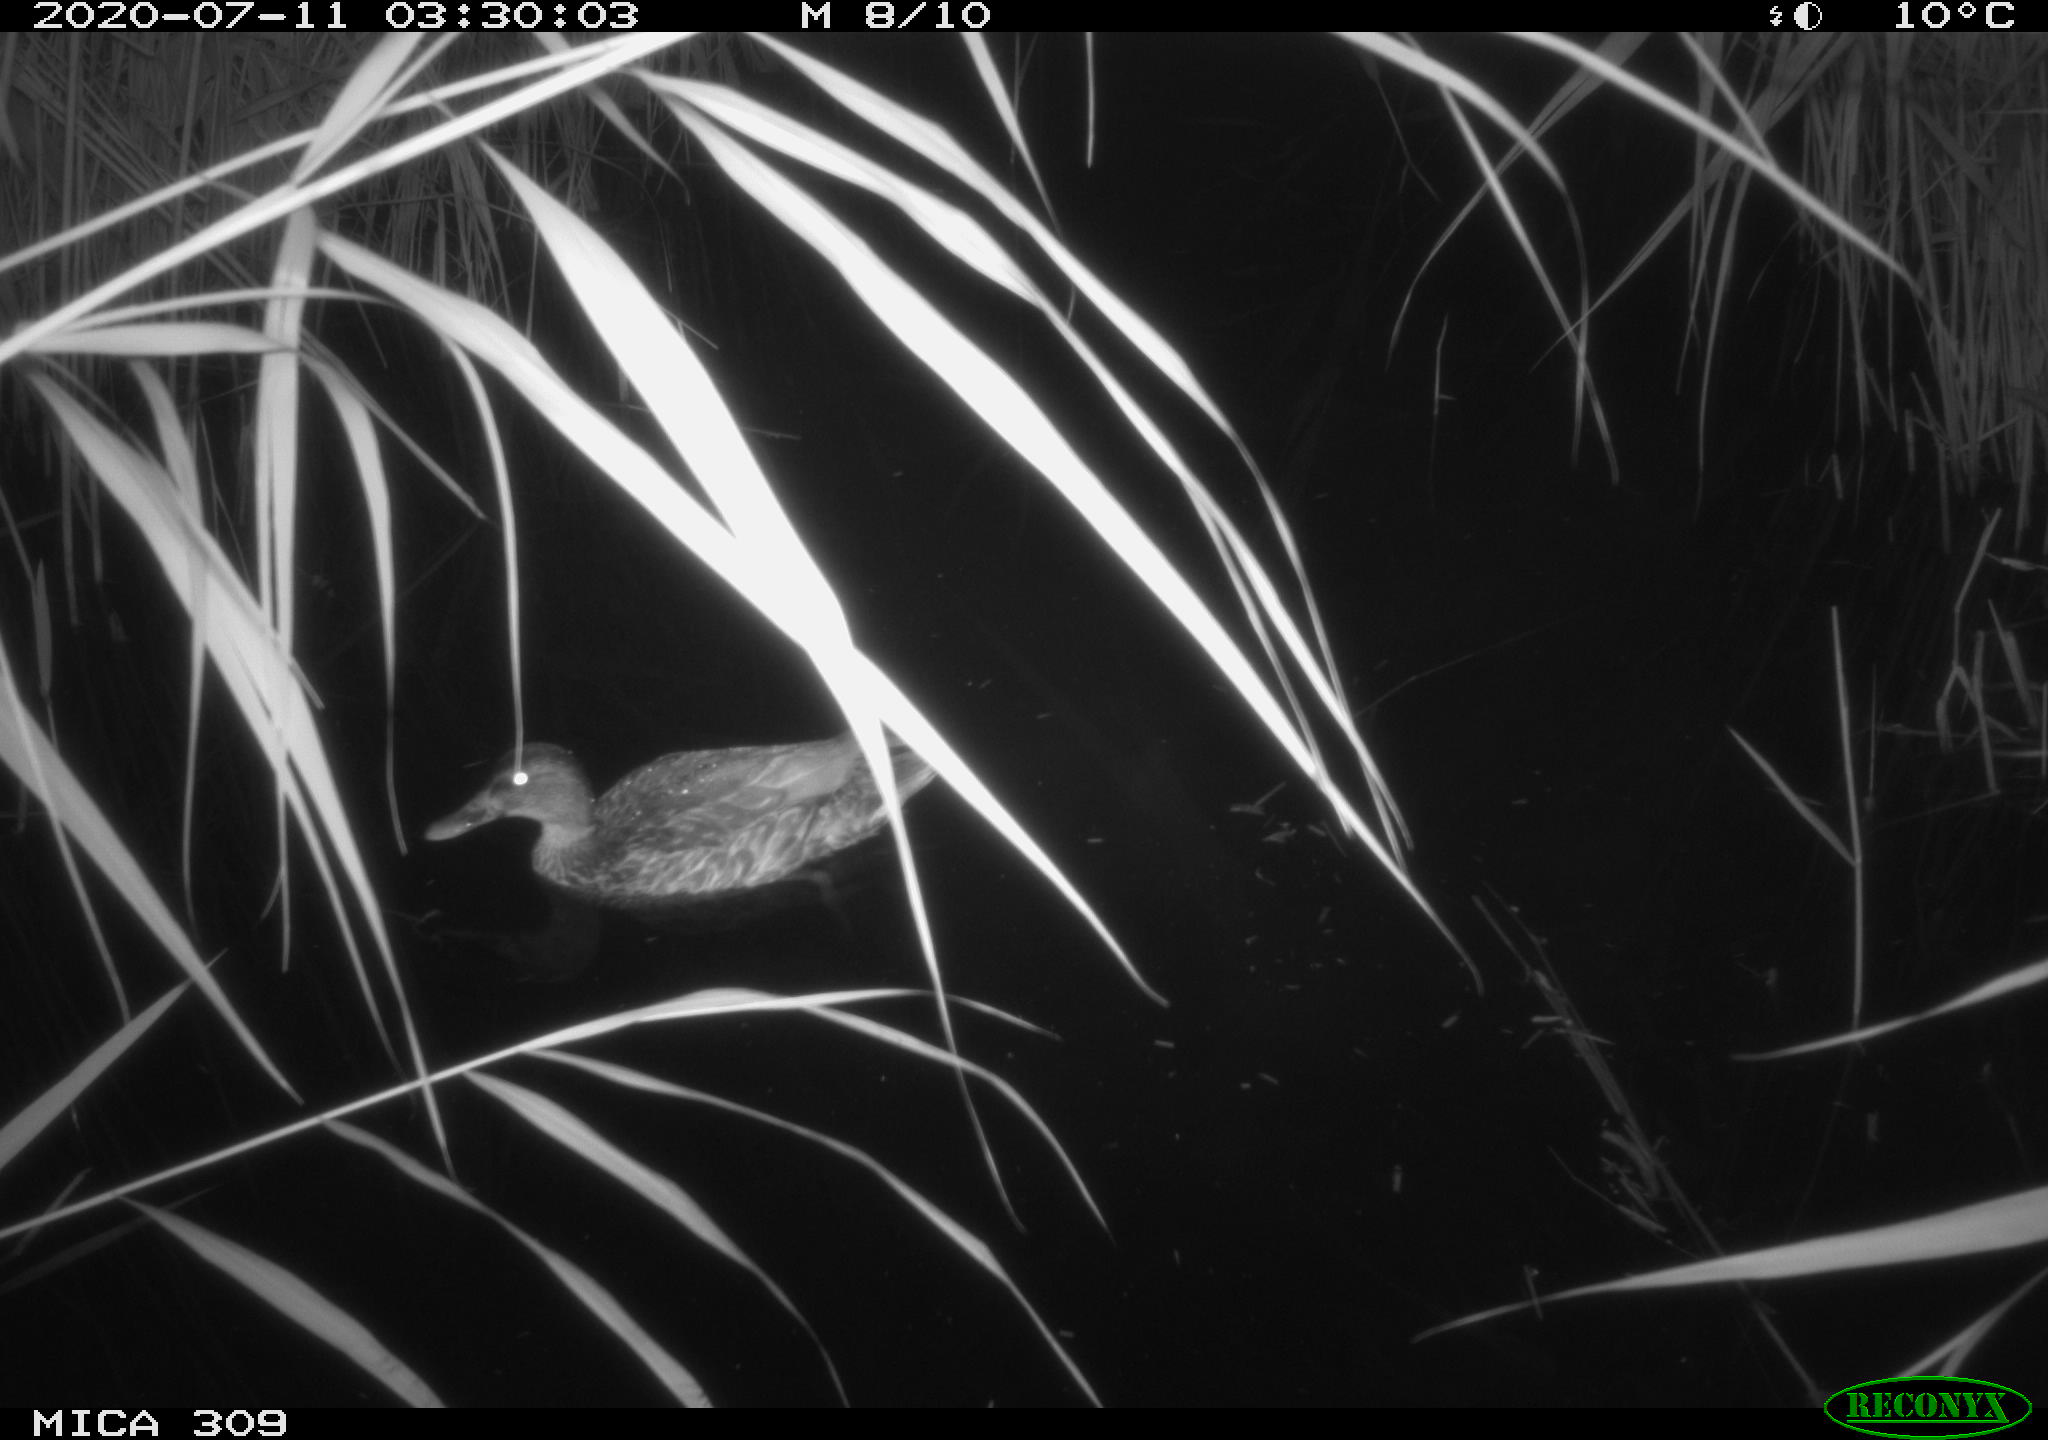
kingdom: Animalia
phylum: Chordata
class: Aves
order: Anseriformes
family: Anatidae
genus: Anas
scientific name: Anas platyrhynchos
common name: Mallard
